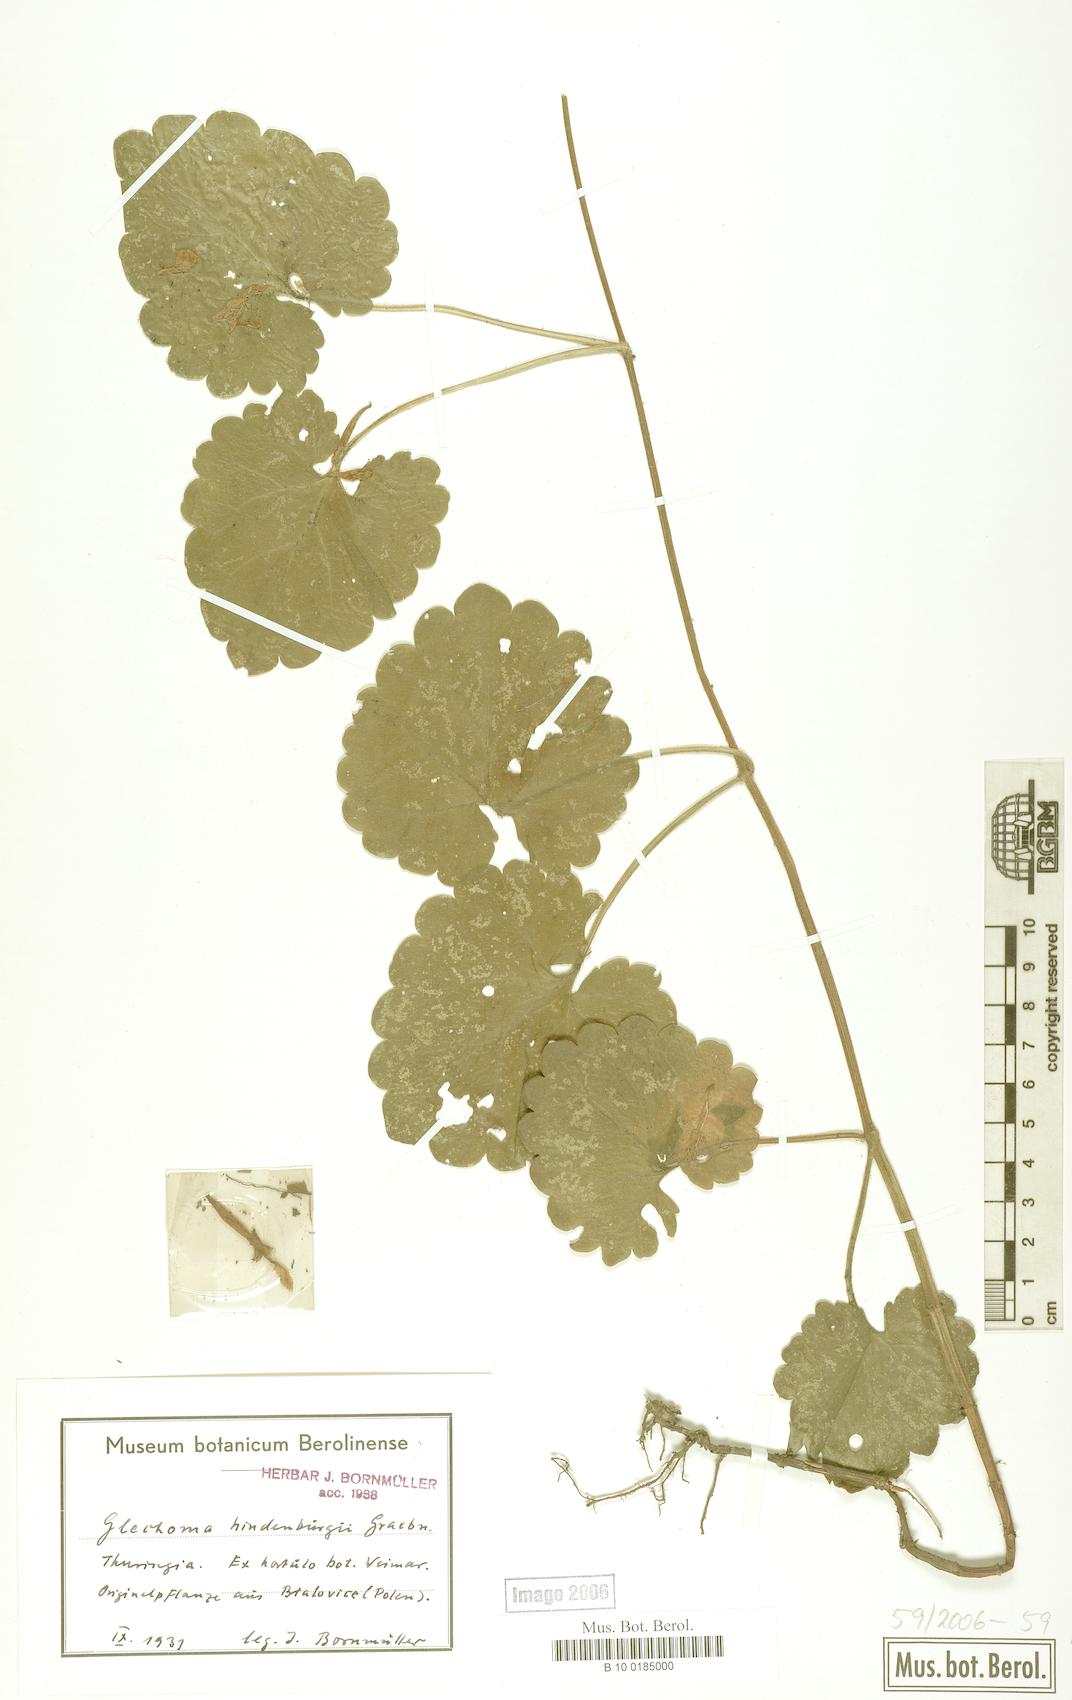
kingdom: Plantae
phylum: Tracheophyta
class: Magnoliopsida
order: Lamiales
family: Lamiaceae
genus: Glechoma
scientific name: Glechoma pannonica
